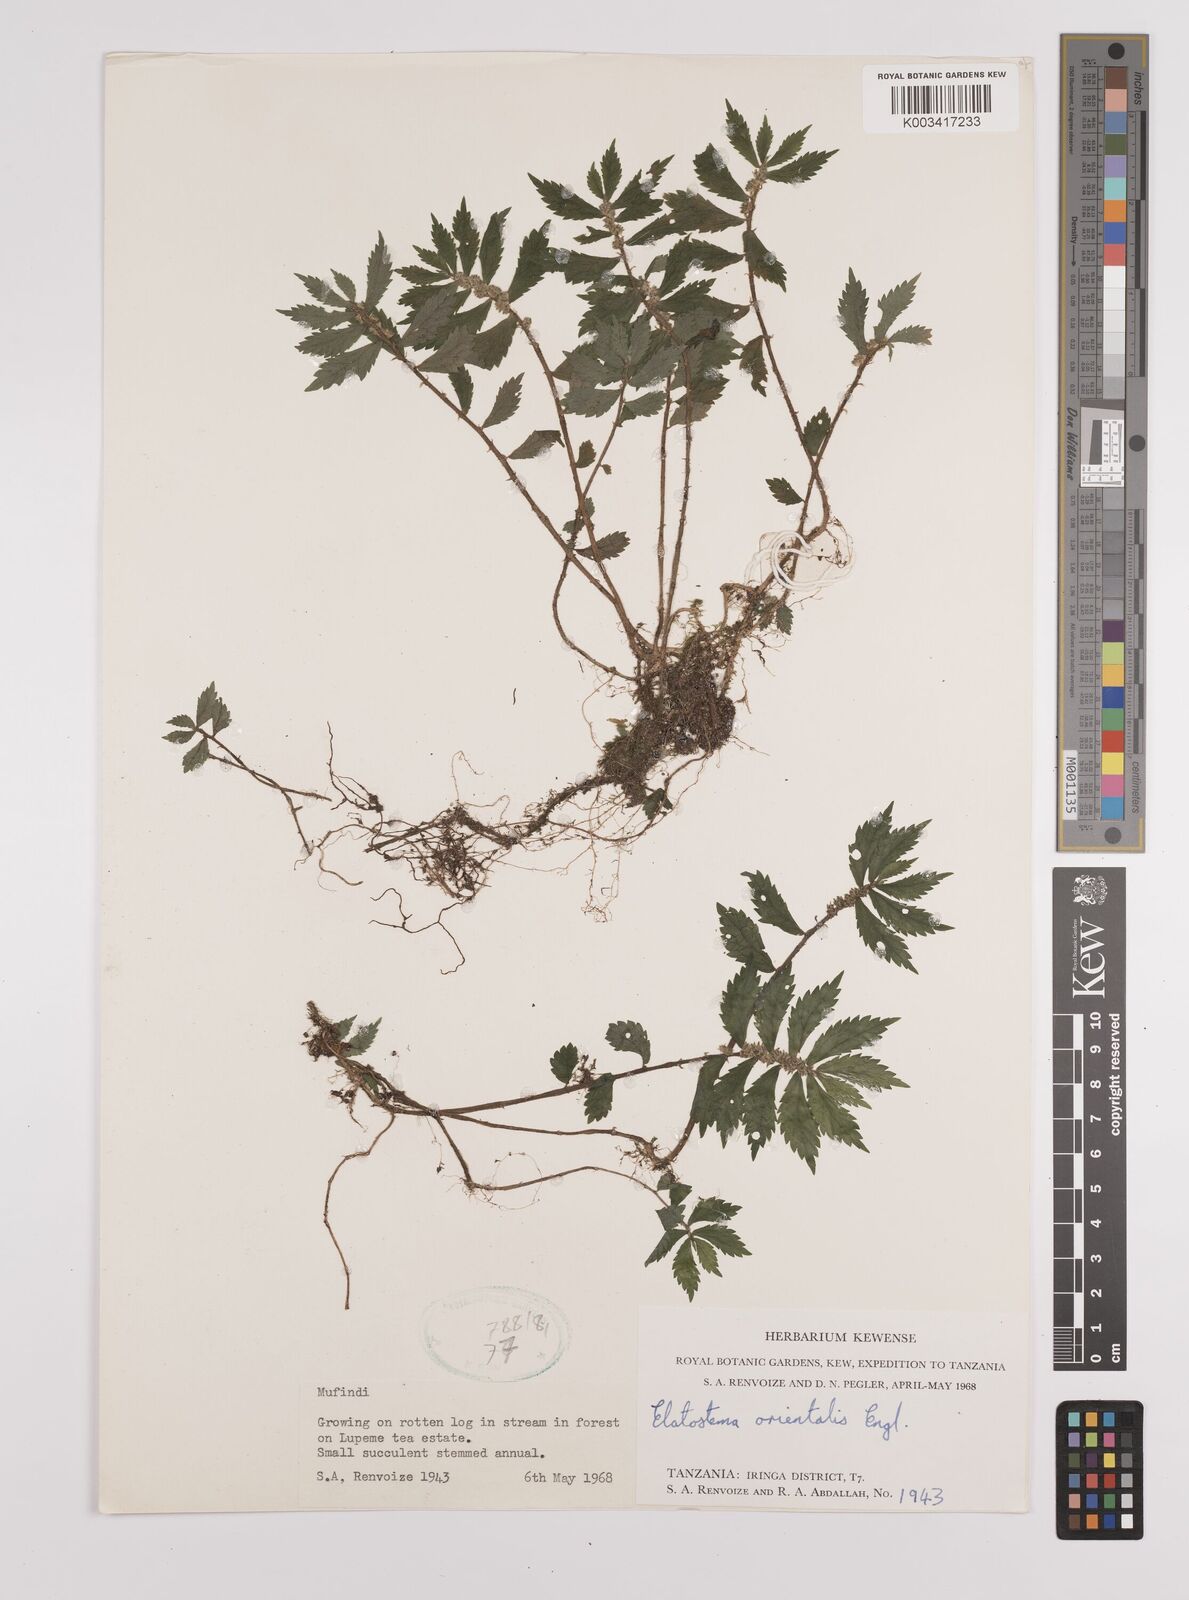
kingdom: Plantae
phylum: Tracheophyta
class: Magnoliopsida
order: Rosales
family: Urticaceae
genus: Elatostema
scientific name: Elatostema monticola
